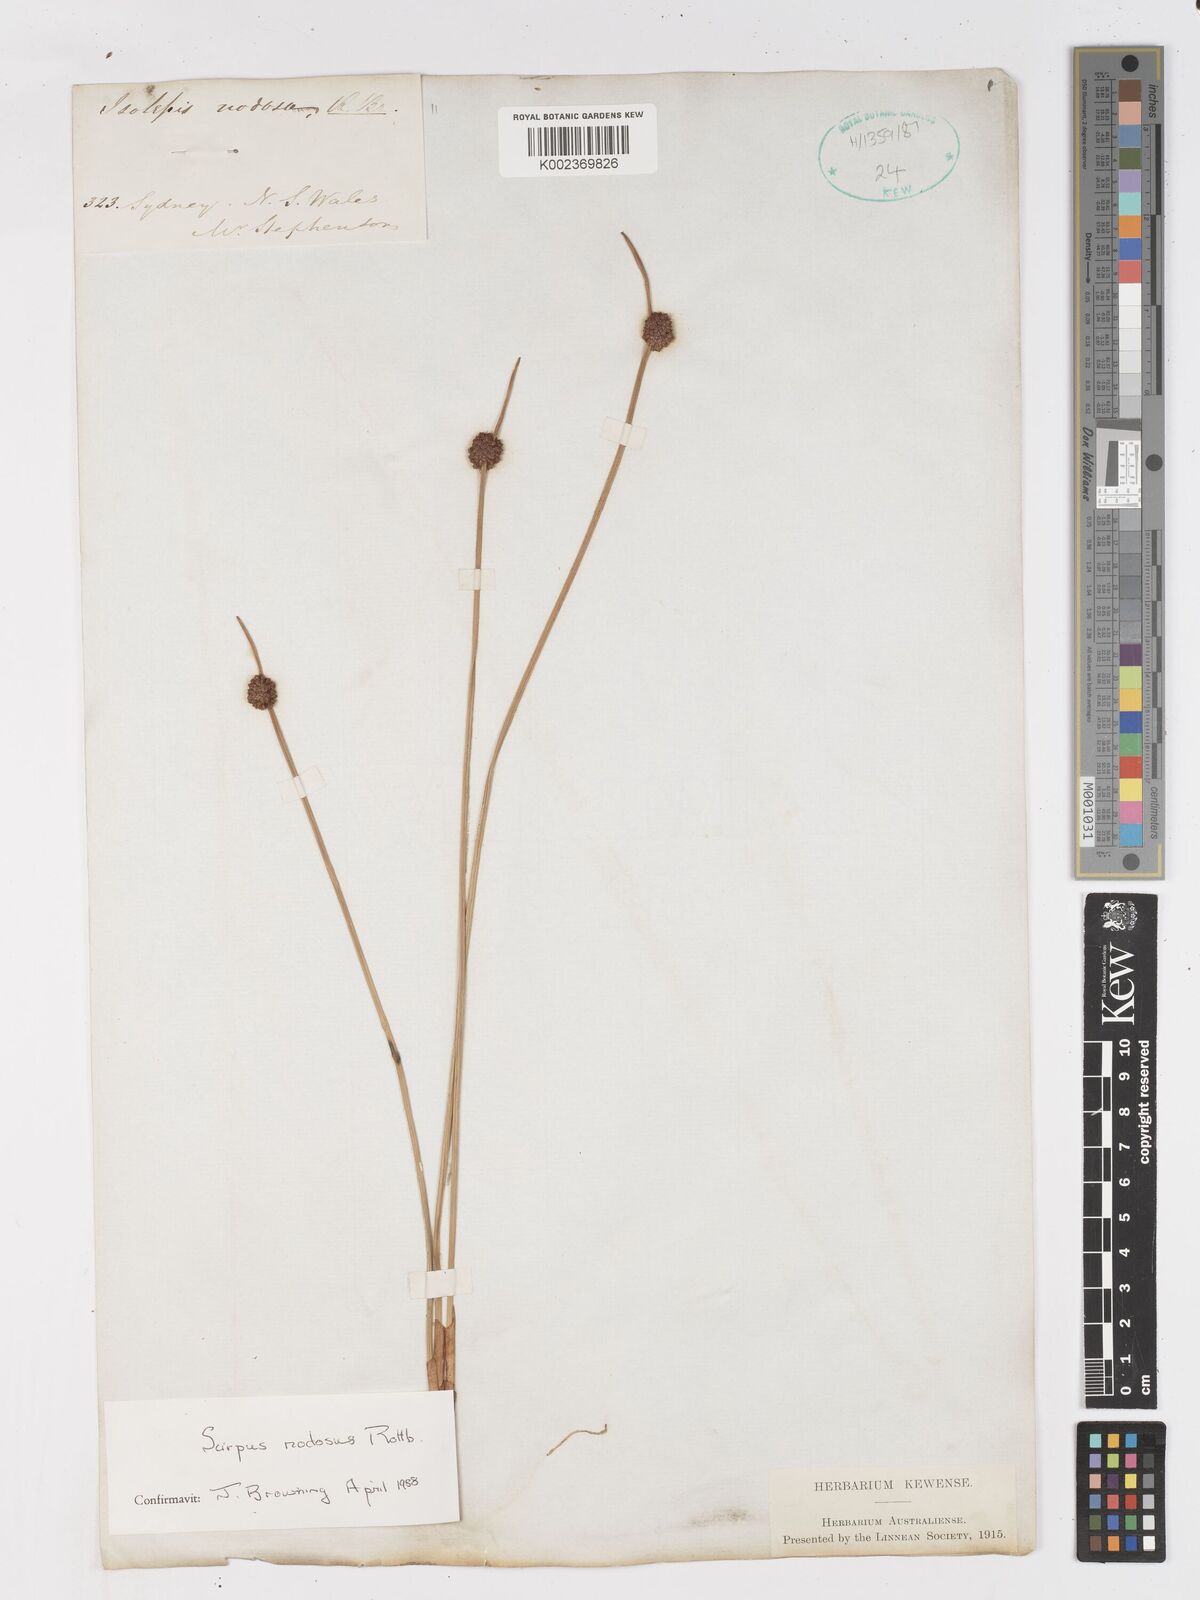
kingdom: Plantae
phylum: Tracheophyta
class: Liliopsida
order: Poales
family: Cyperaceae
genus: Ficinia
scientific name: Ficinia nodosa
